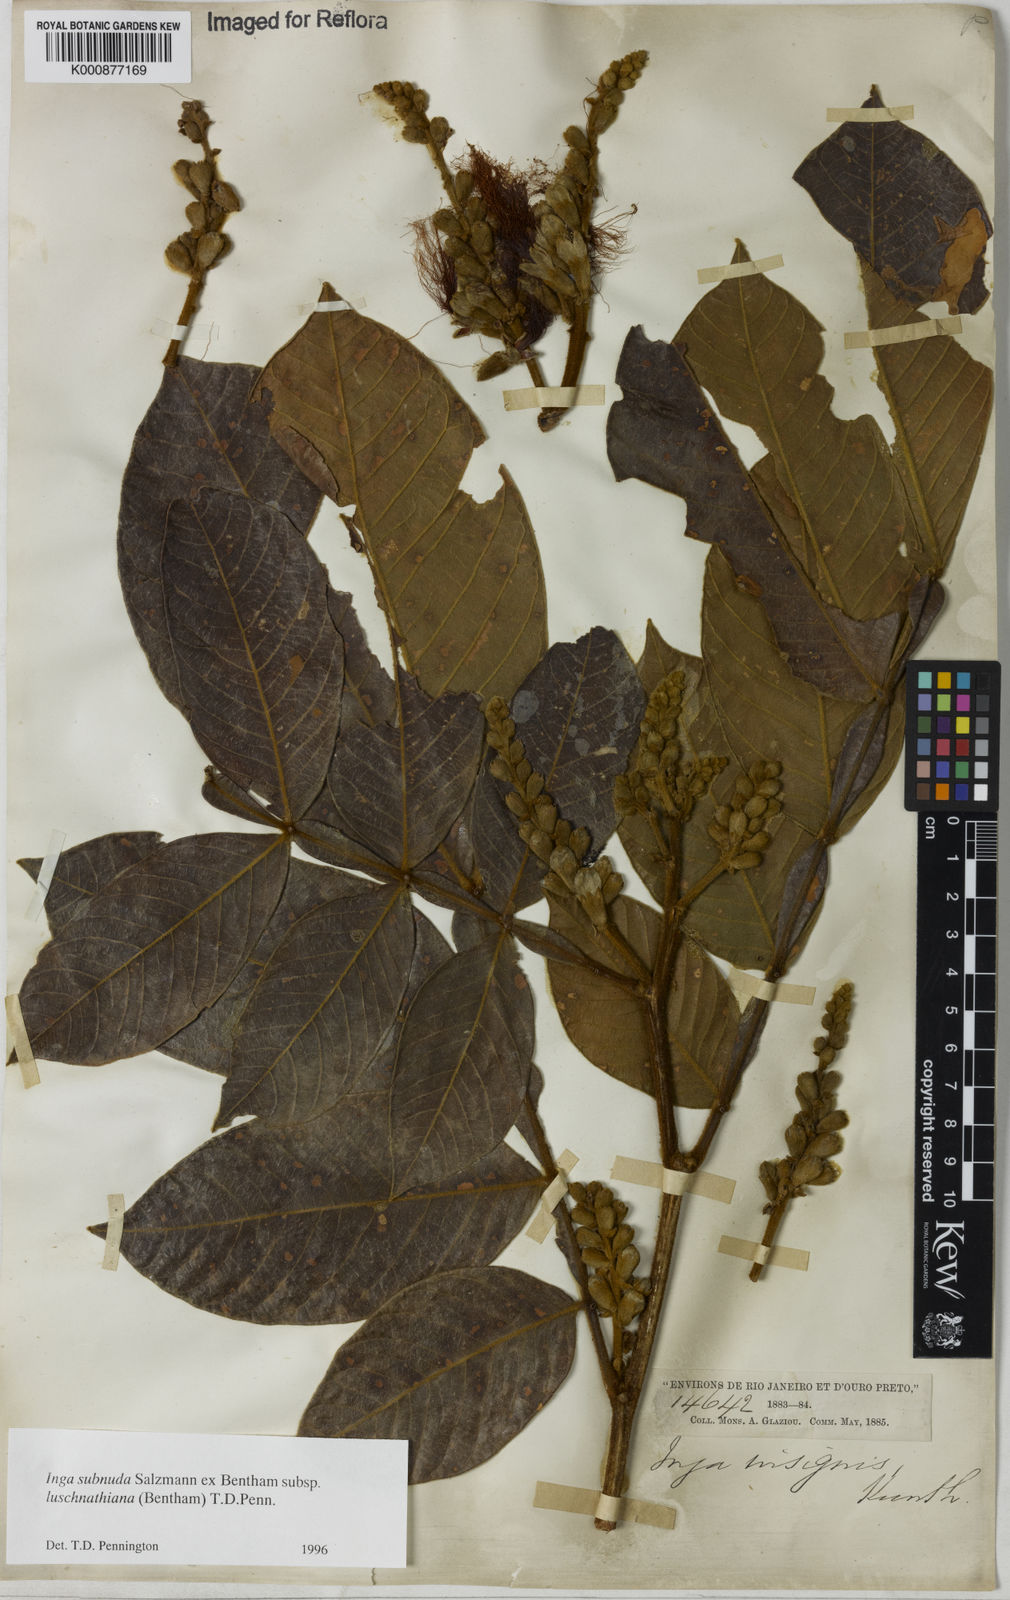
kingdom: Plantae
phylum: Tracheophyta
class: Magnoliopsida
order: Fabales
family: Fabaceae
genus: Inga
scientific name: Inga subnuda
